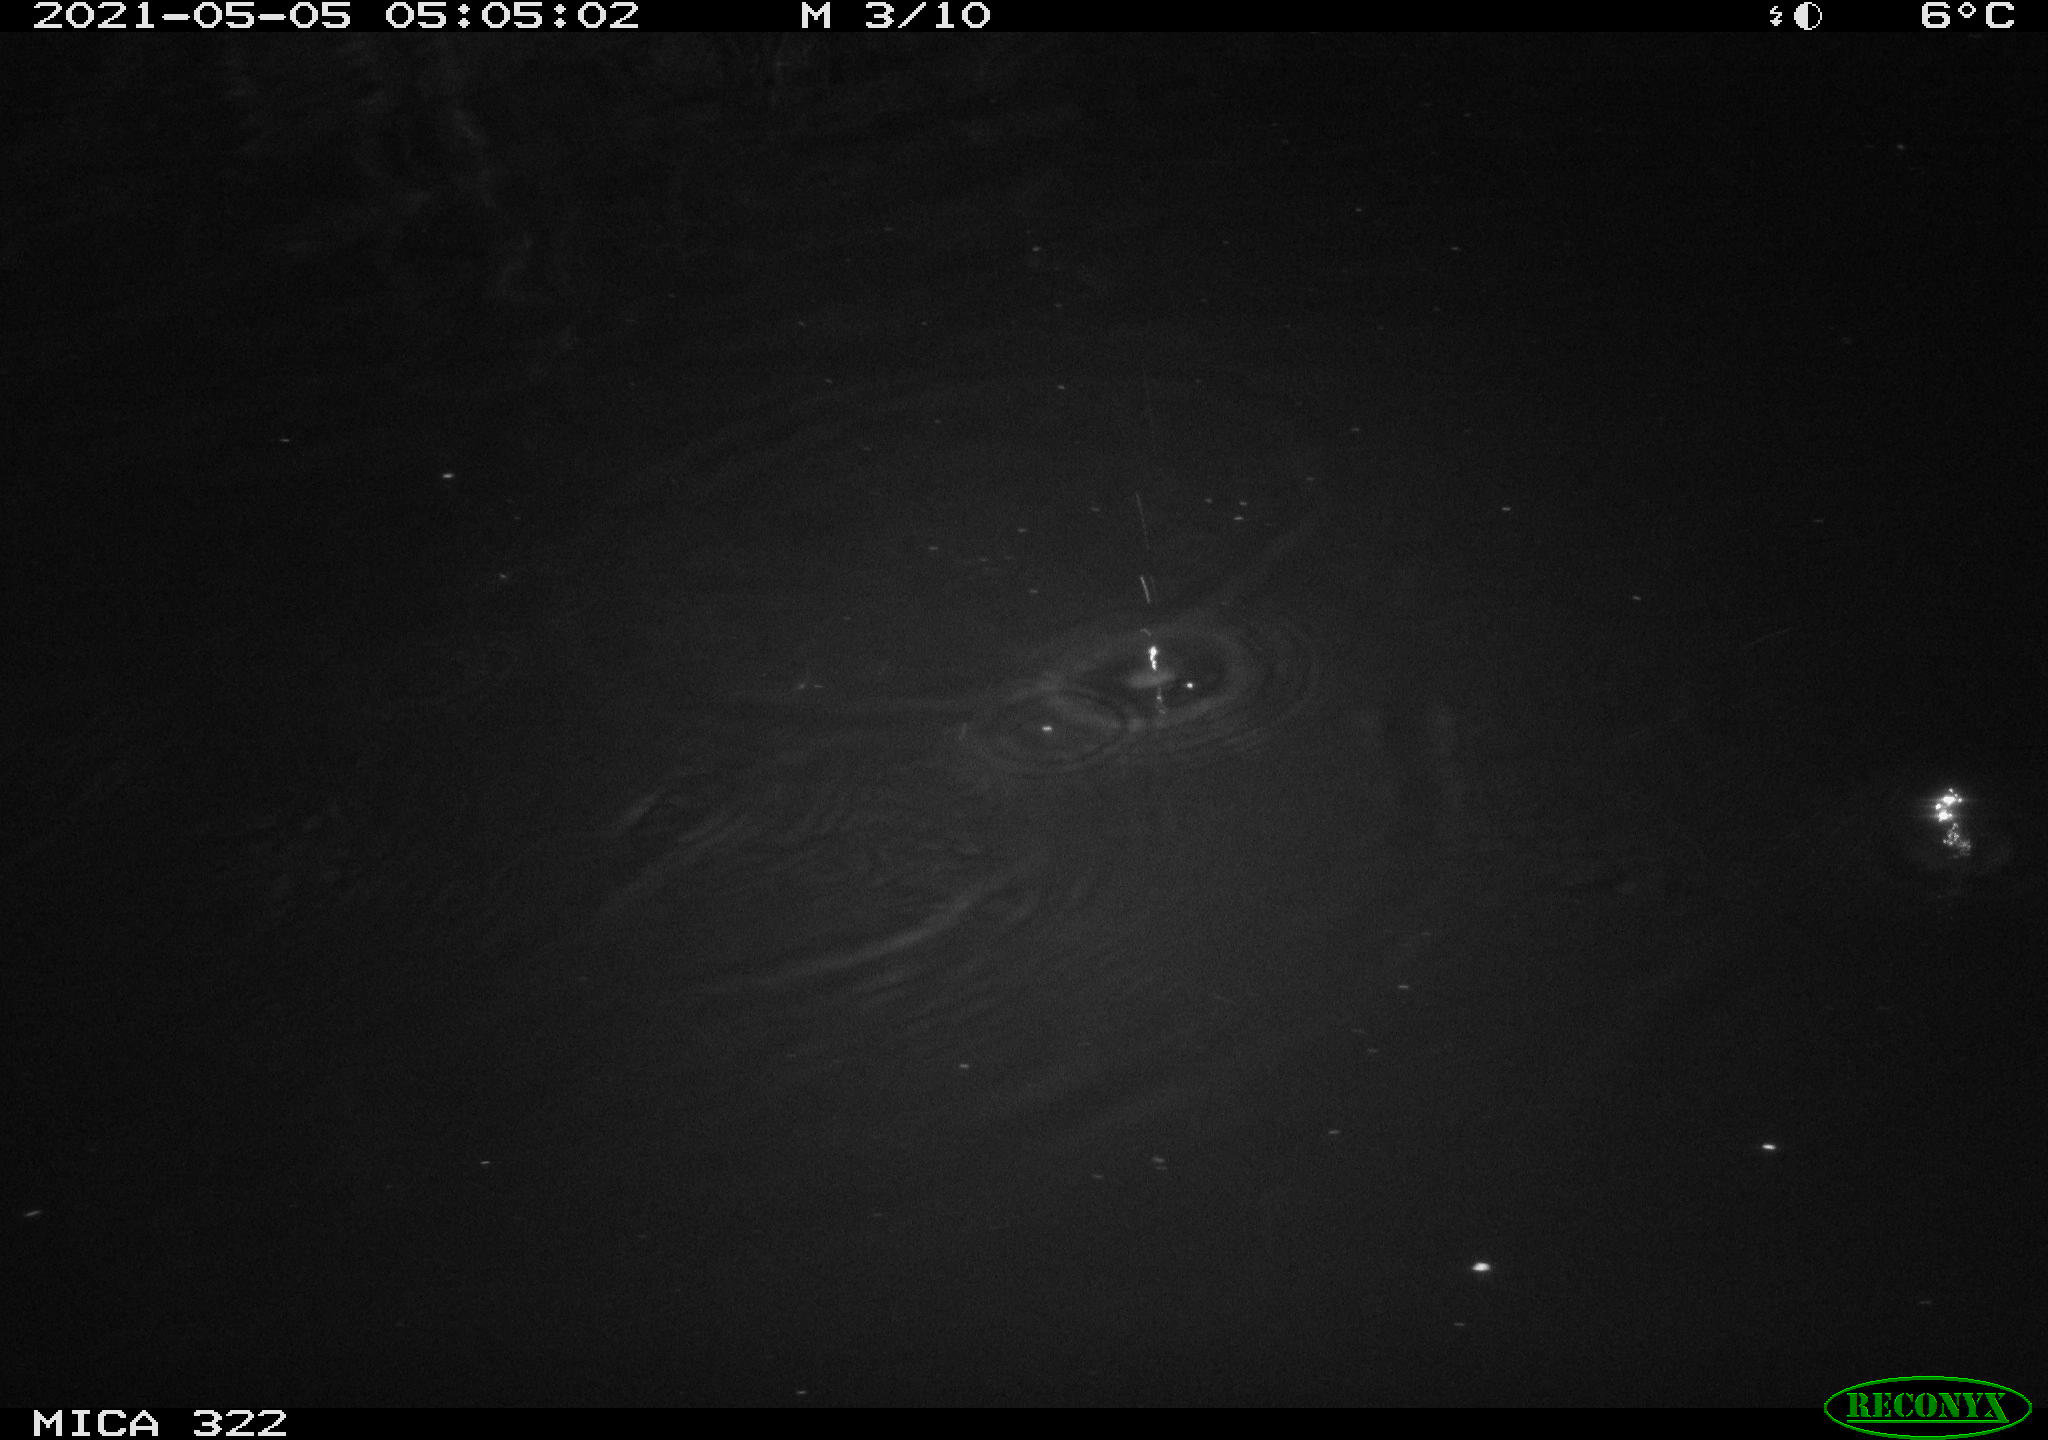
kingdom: Animalia
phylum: Chordata
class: Aves
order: Gruiformes
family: Rallidae
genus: Fulica
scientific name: Fulica atra
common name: Eurasian coot
